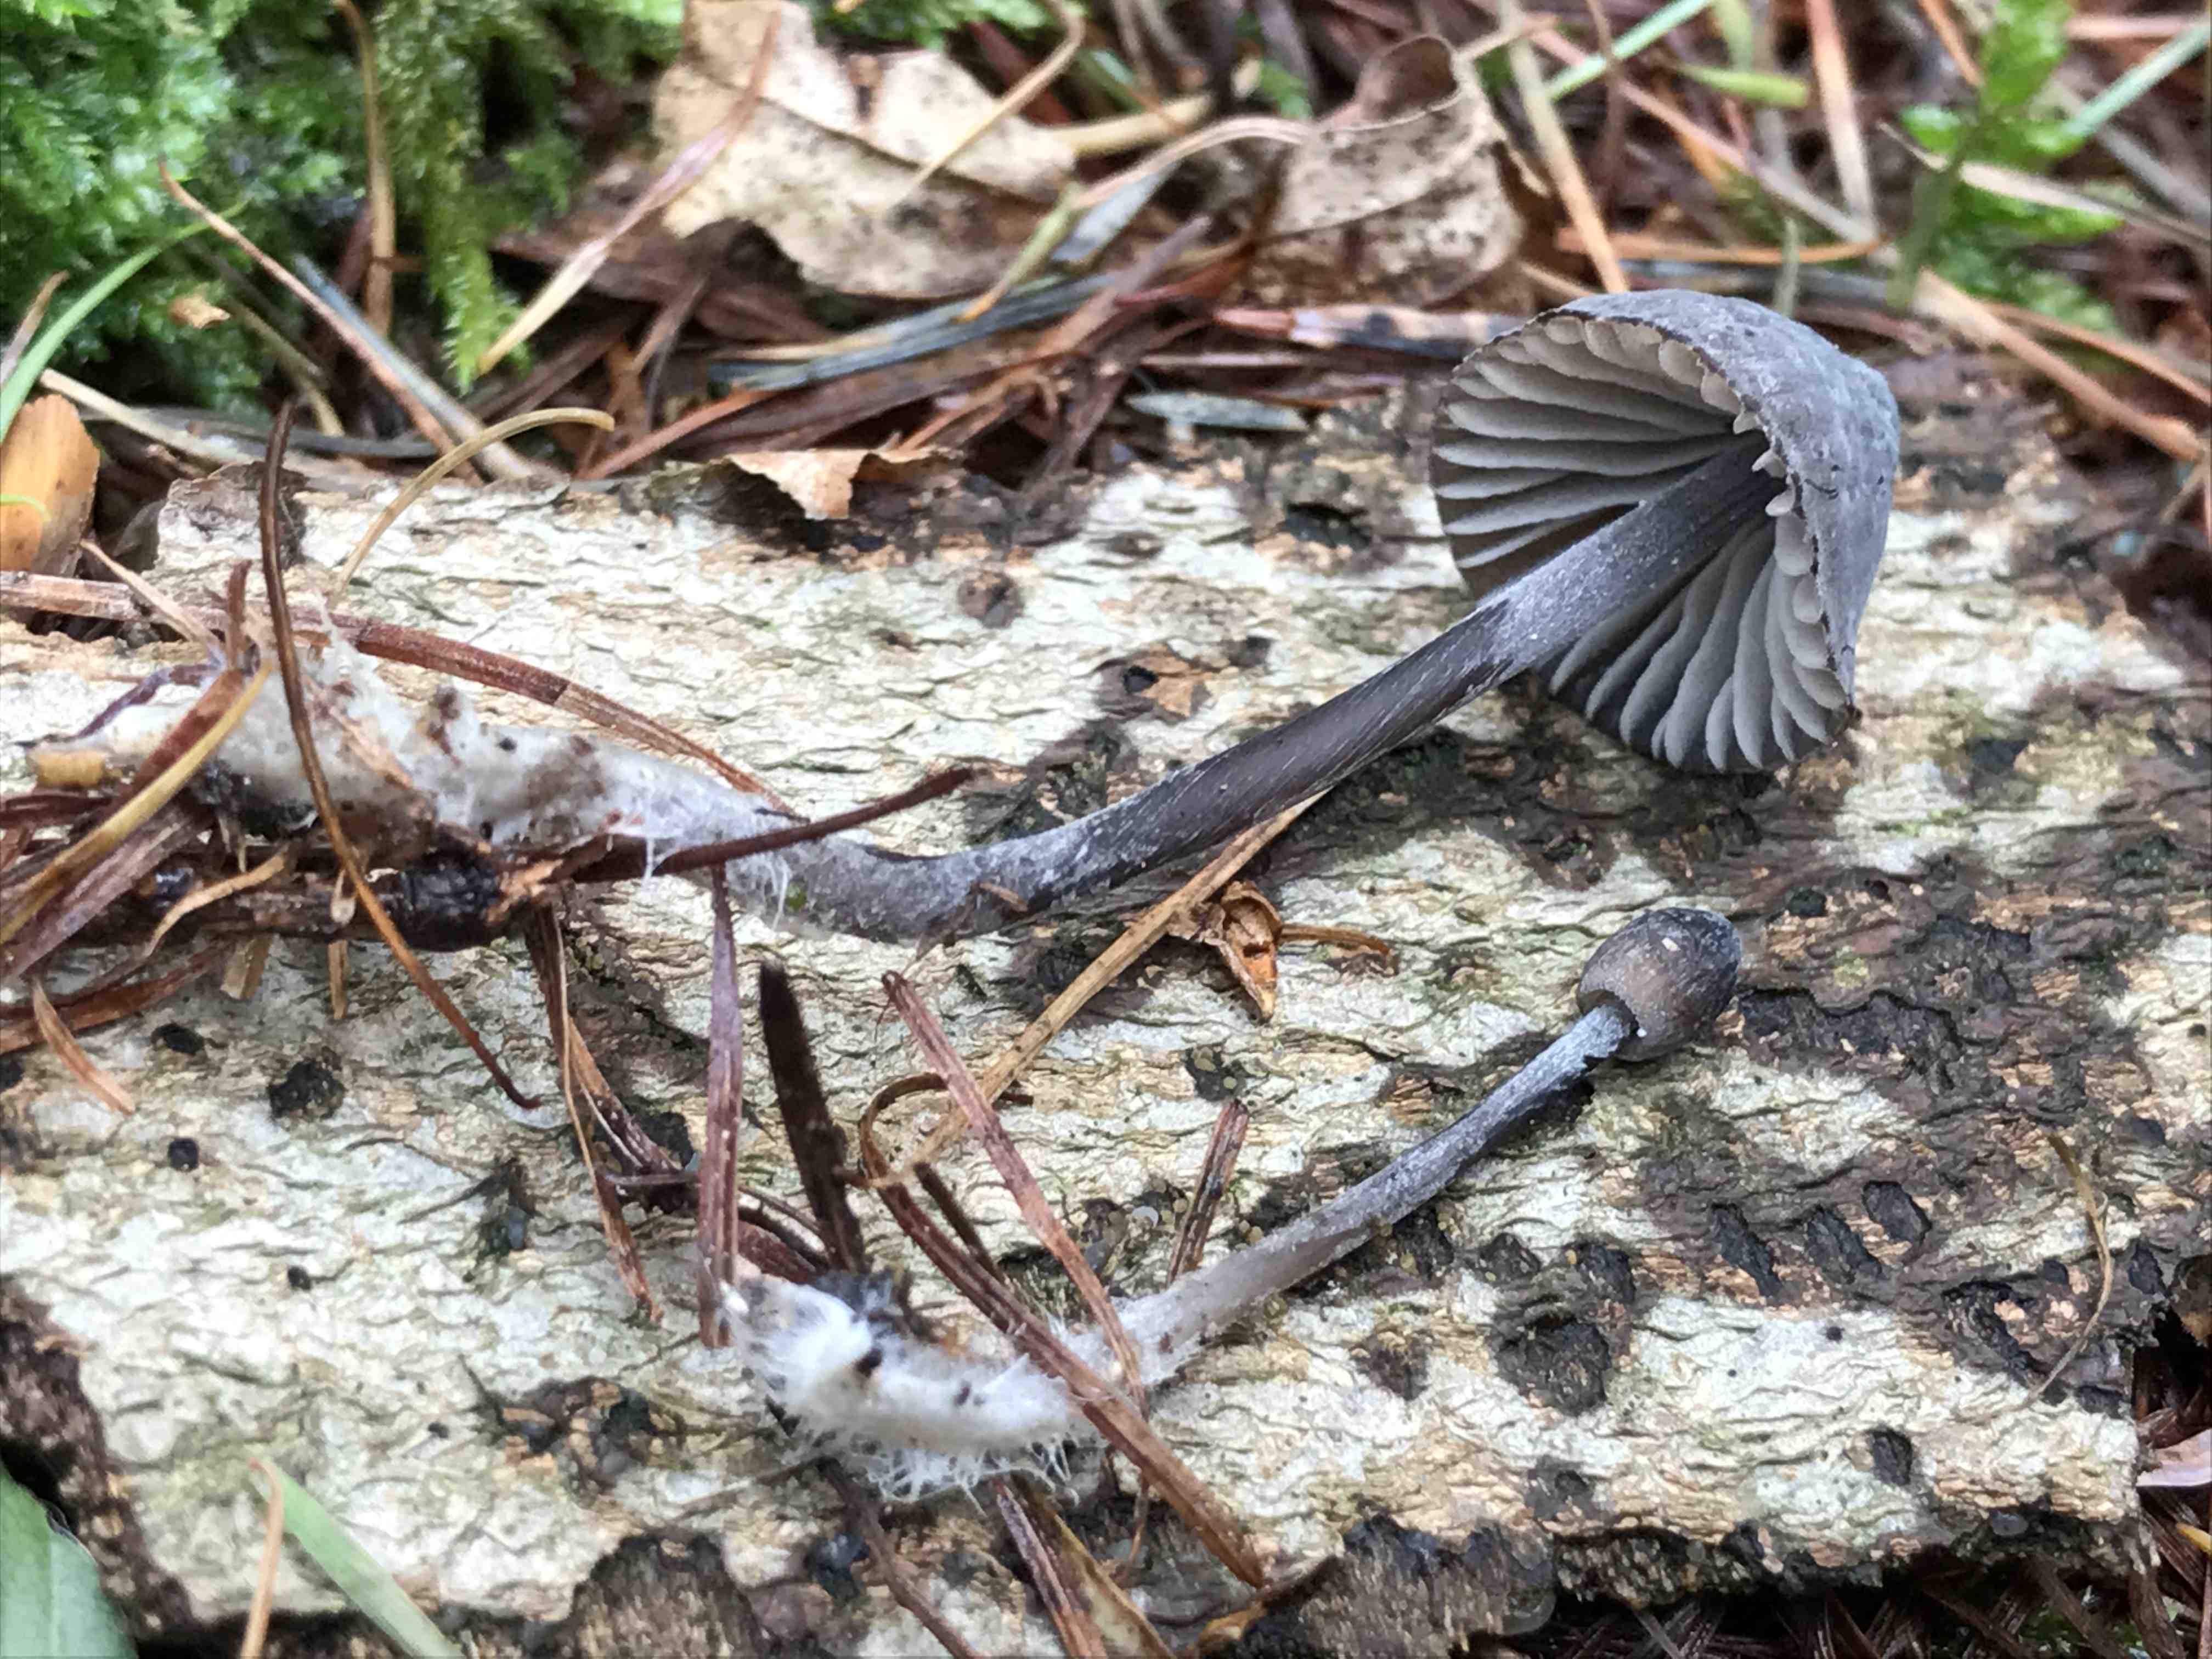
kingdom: Fungi
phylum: Basidiomycota
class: Agaricomycetes
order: Agaricales
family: Mycenaceae
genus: Mycena
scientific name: Mycena galopus
